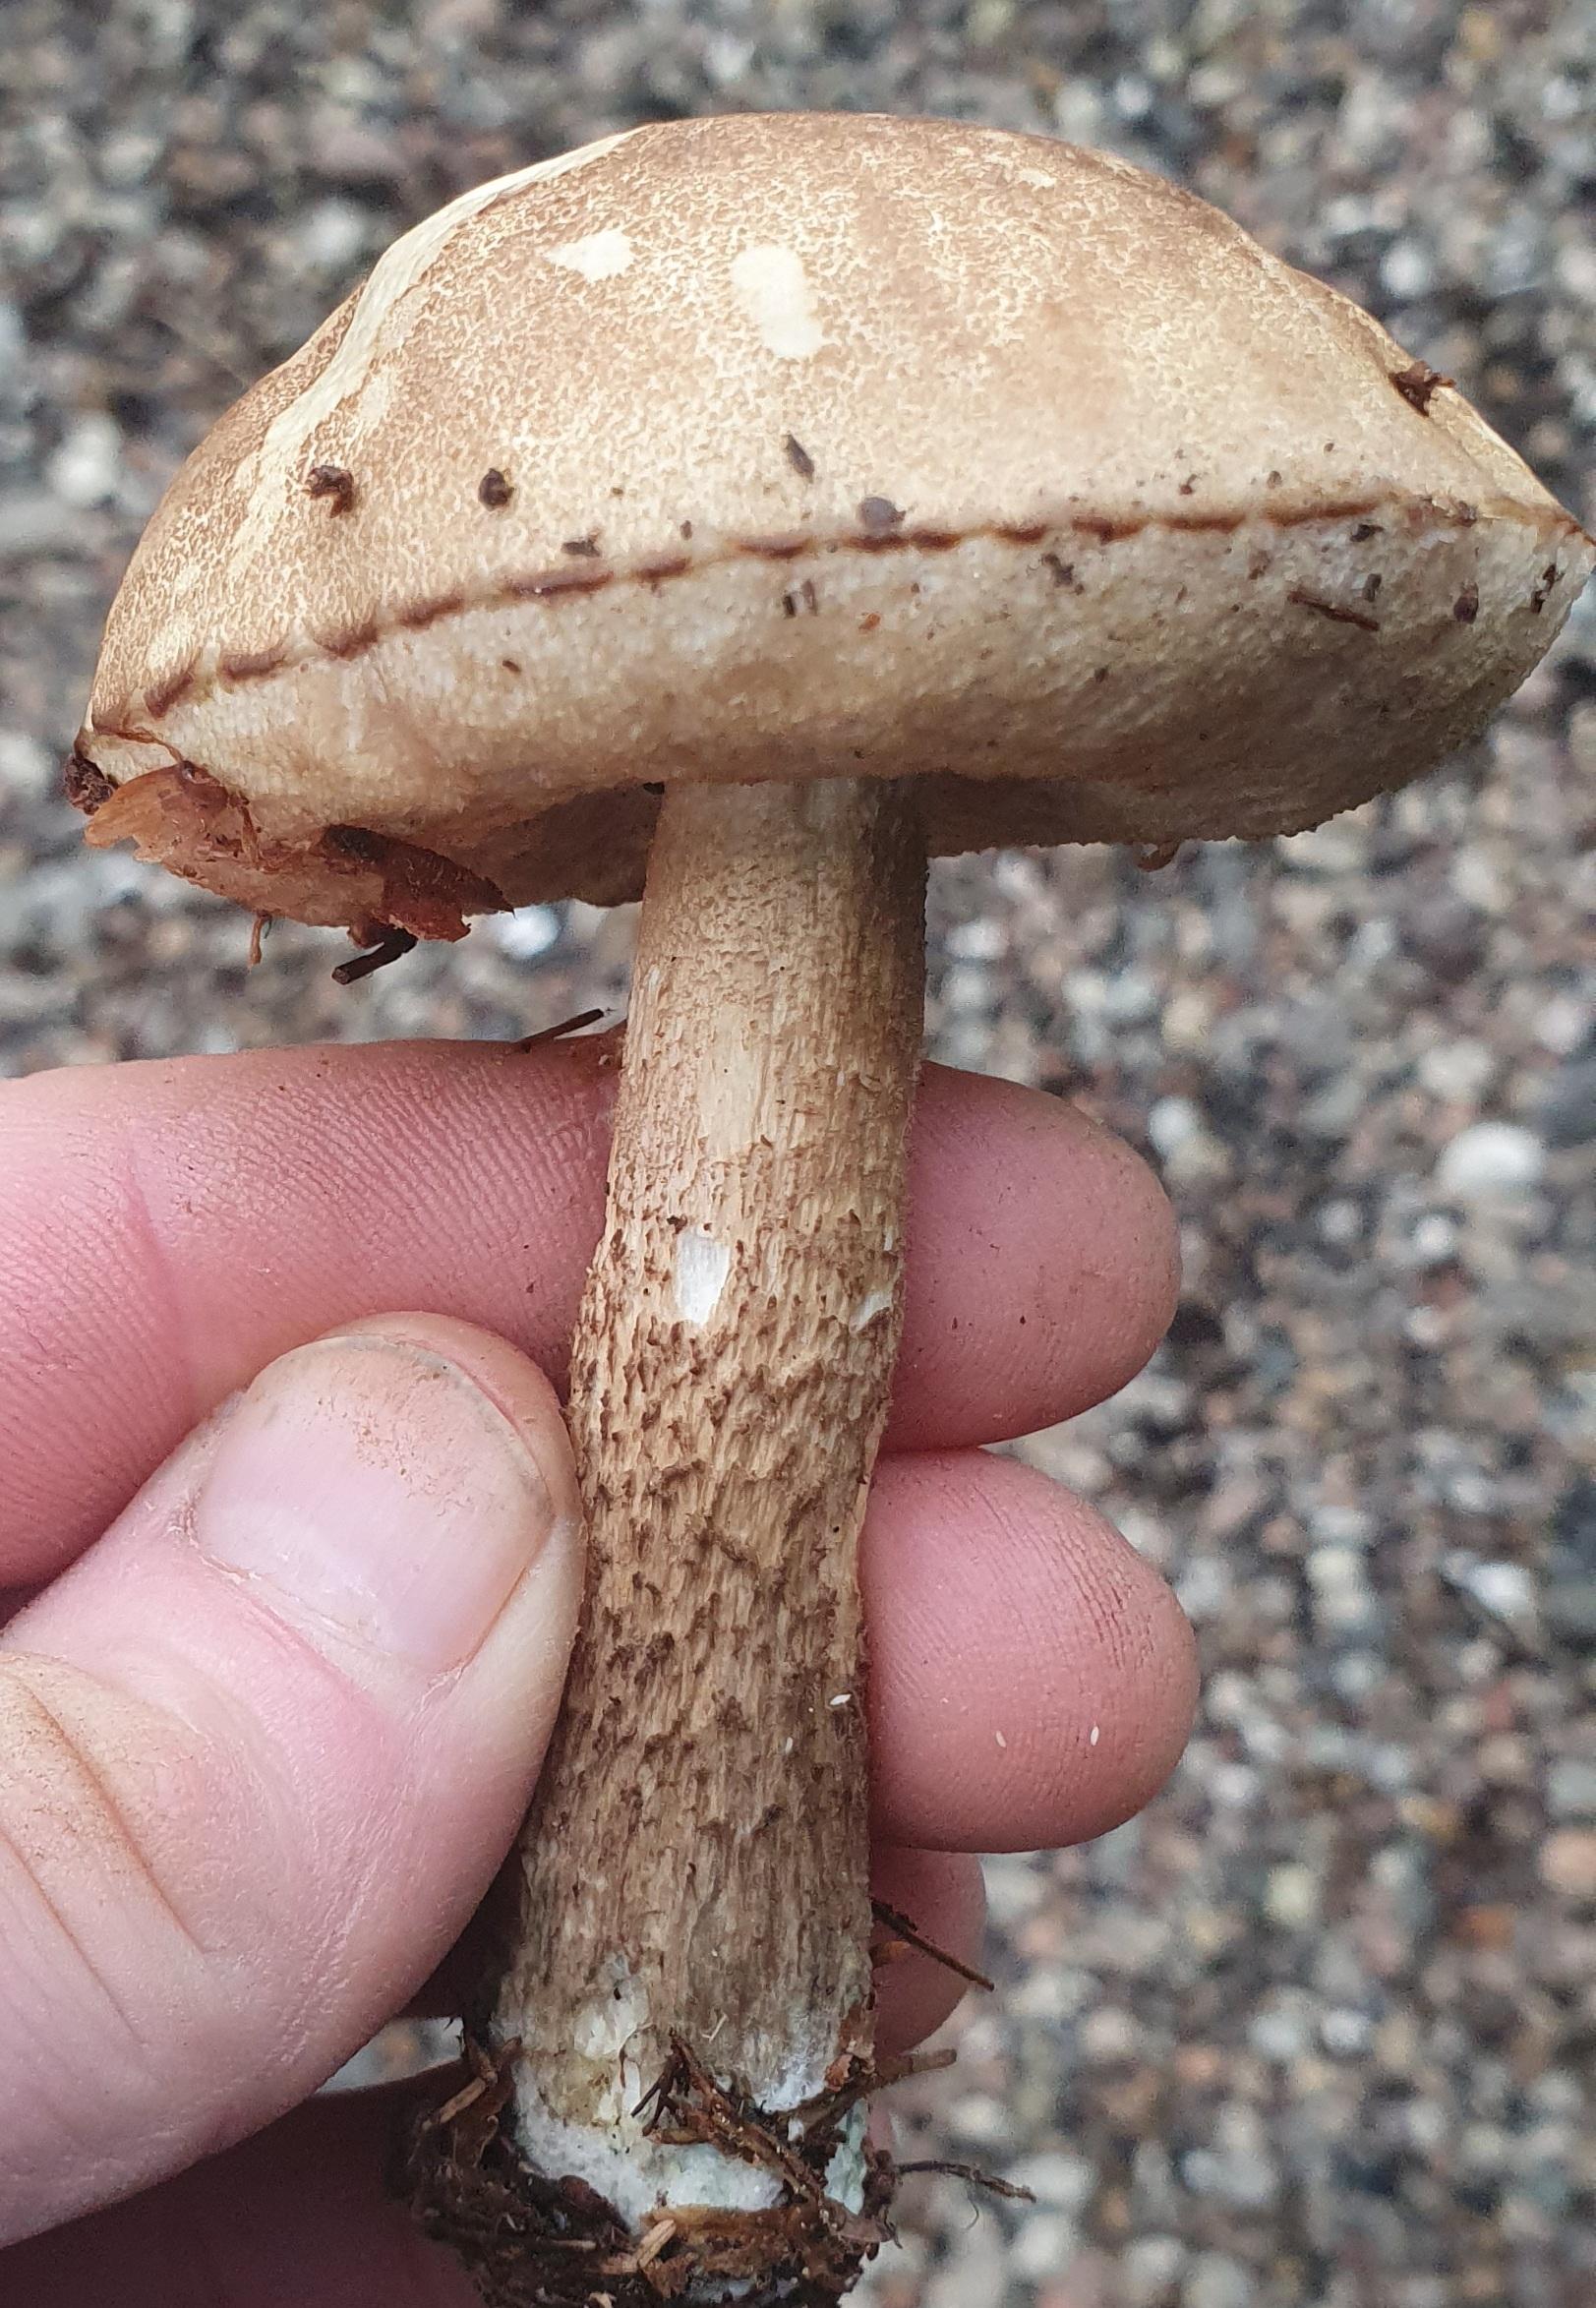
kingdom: Fungi
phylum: Basidiomycota
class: Agaricomycetes
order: Boletales
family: Boletaceae
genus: Leccinum
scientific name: Leccinum
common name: skælrørhat
